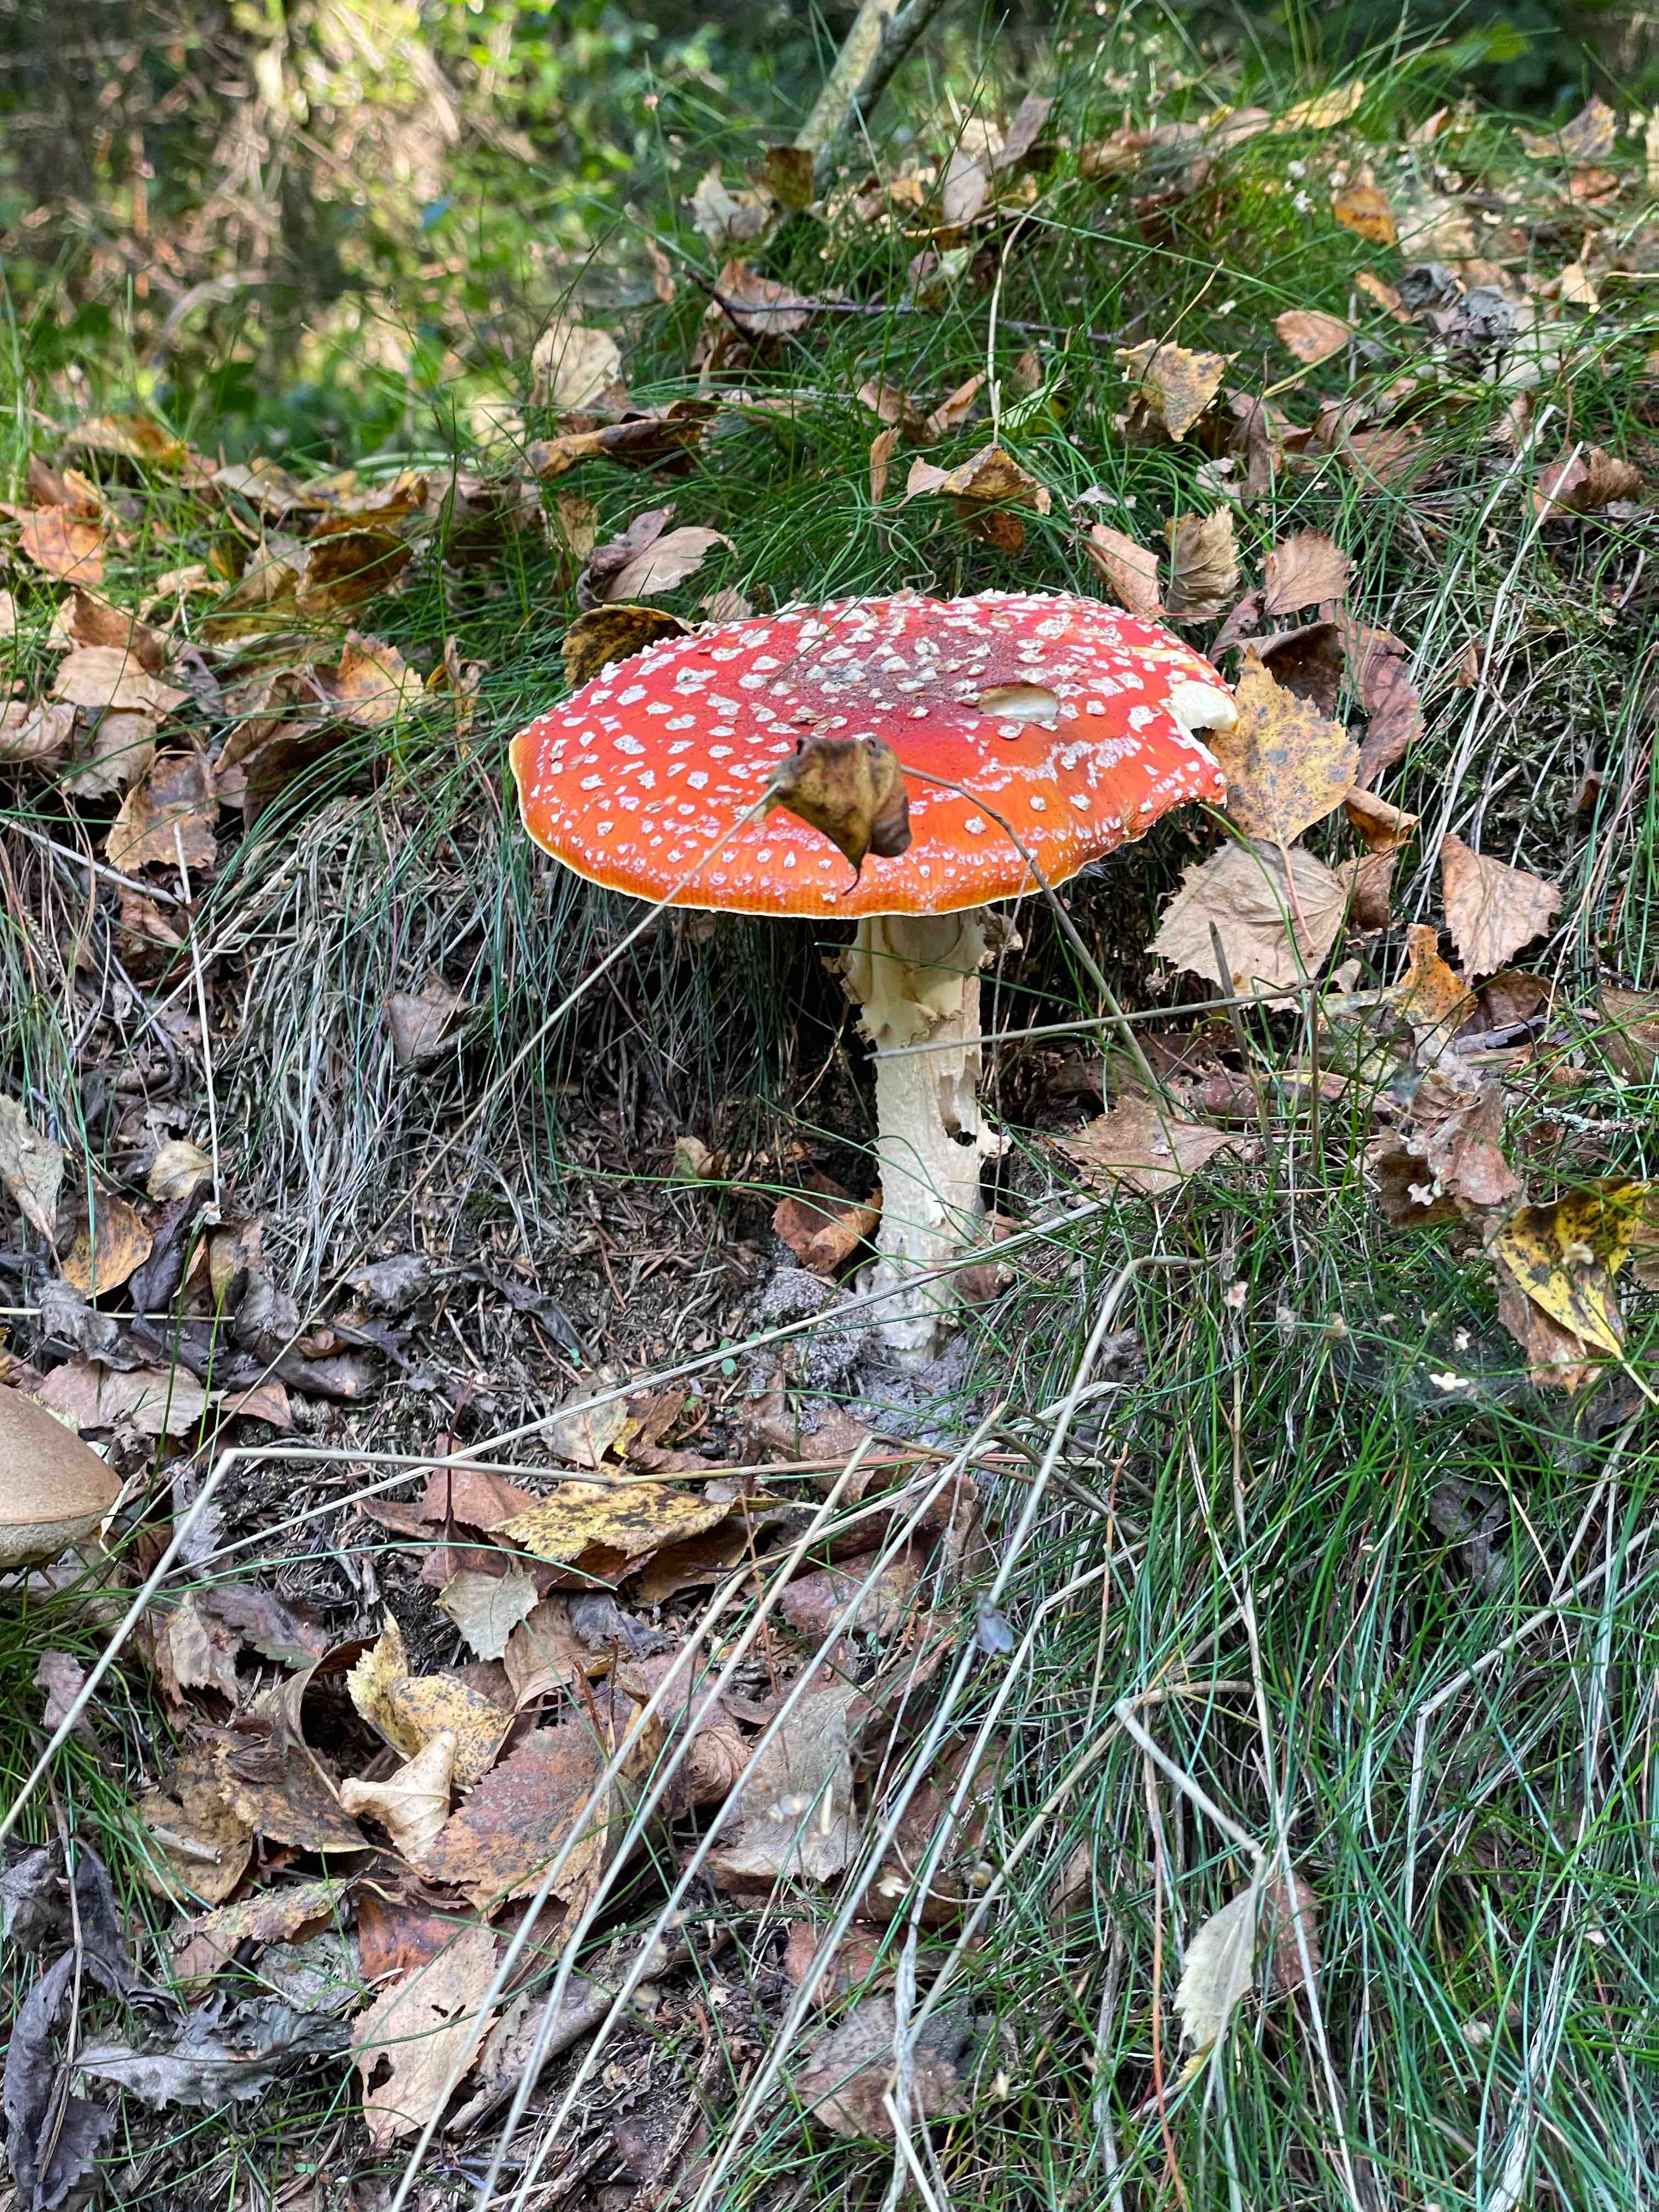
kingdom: Fungi
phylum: Basidiomycota
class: Agaricomycetes
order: Agaricales
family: Amanitaceae
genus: Amanita
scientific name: Amanita muscaria
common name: rød fluesvamp
